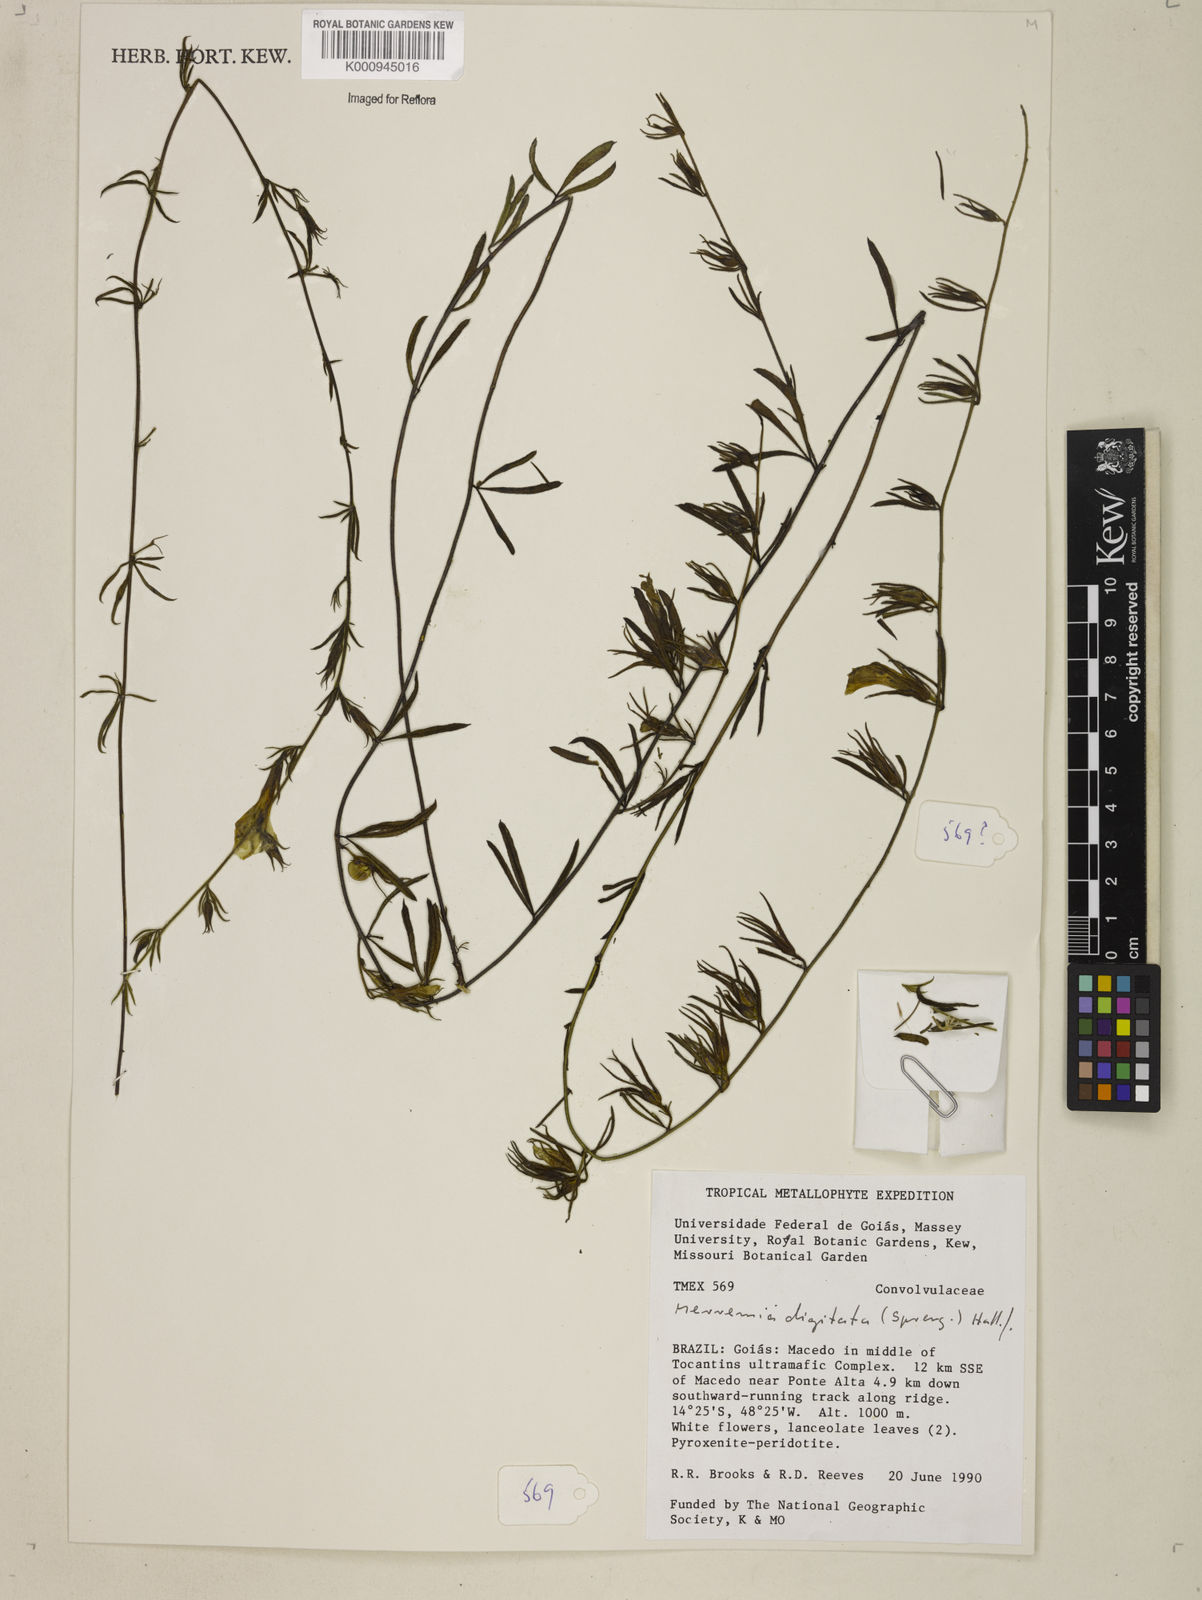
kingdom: Plantae
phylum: Tracheophyta
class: Magnoliopsida
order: Solanales
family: Convolvulaceae
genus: Distimake
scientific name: Distimake ericoides
